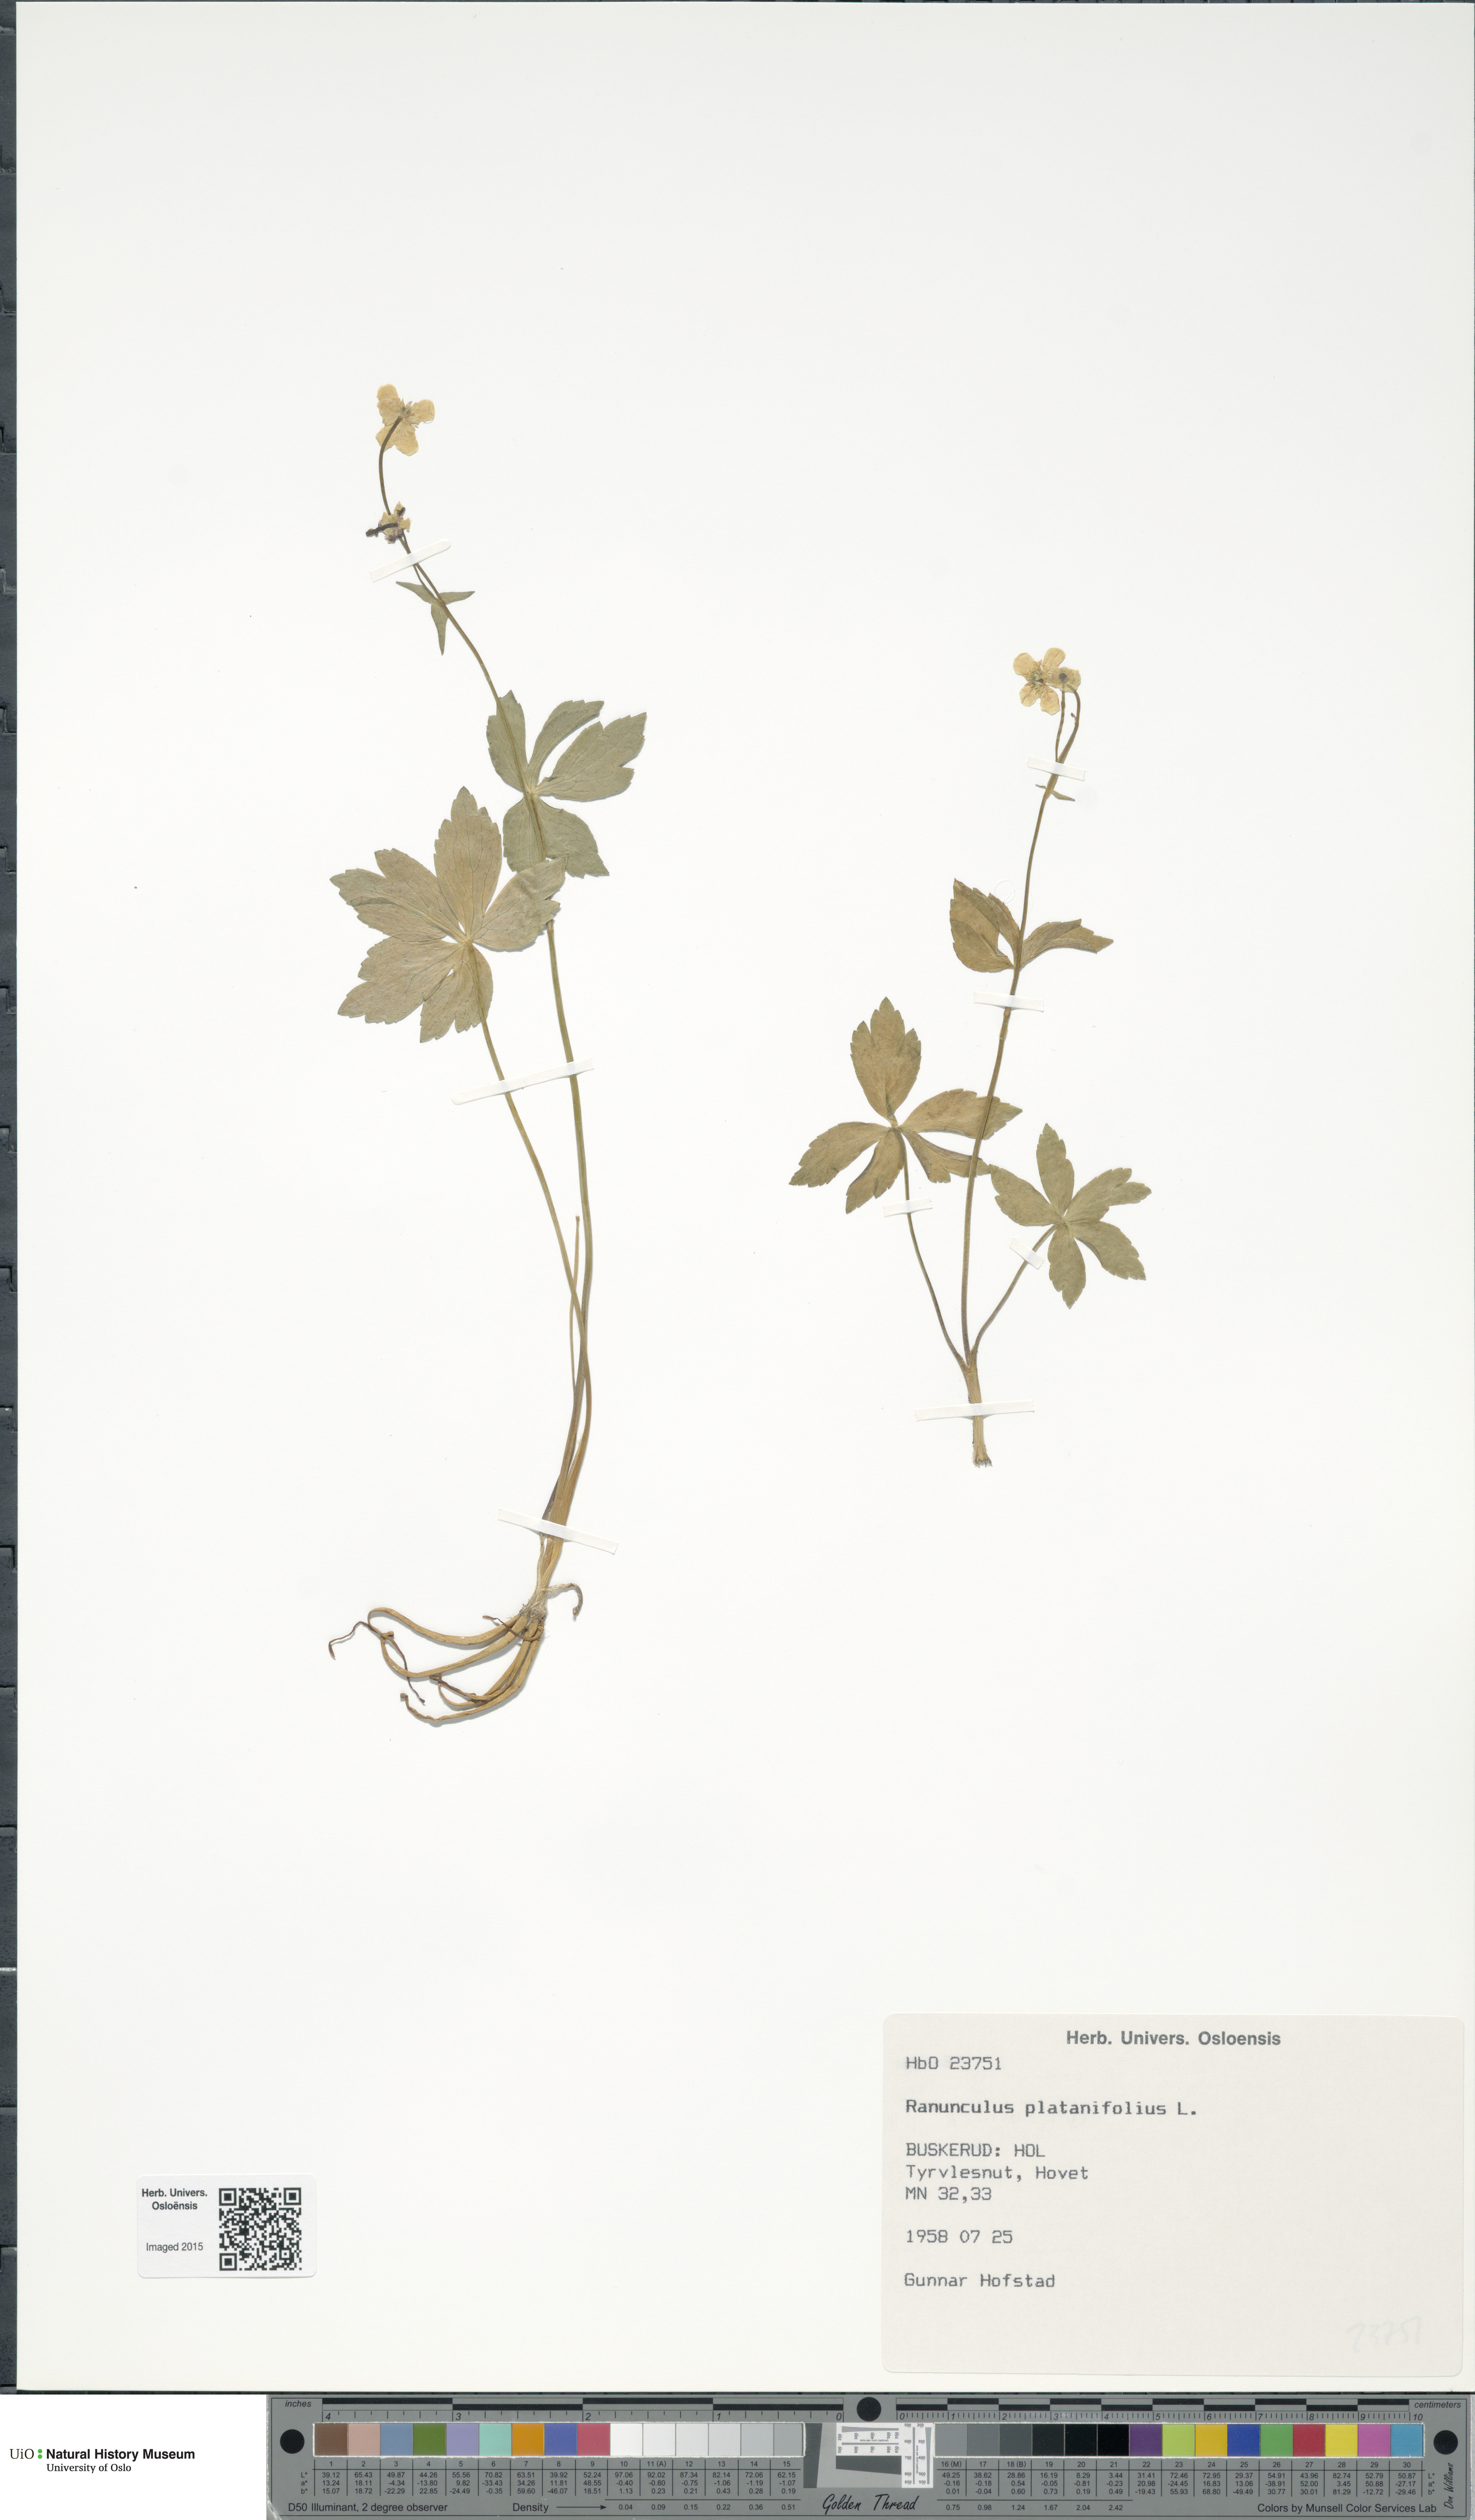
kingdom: Plantae
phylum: Tracheophyta
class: Magnoliopsida
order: Ranunculales
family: Ranunculaceae
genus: Ranunculus
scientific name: Ranunculus platanifolius
